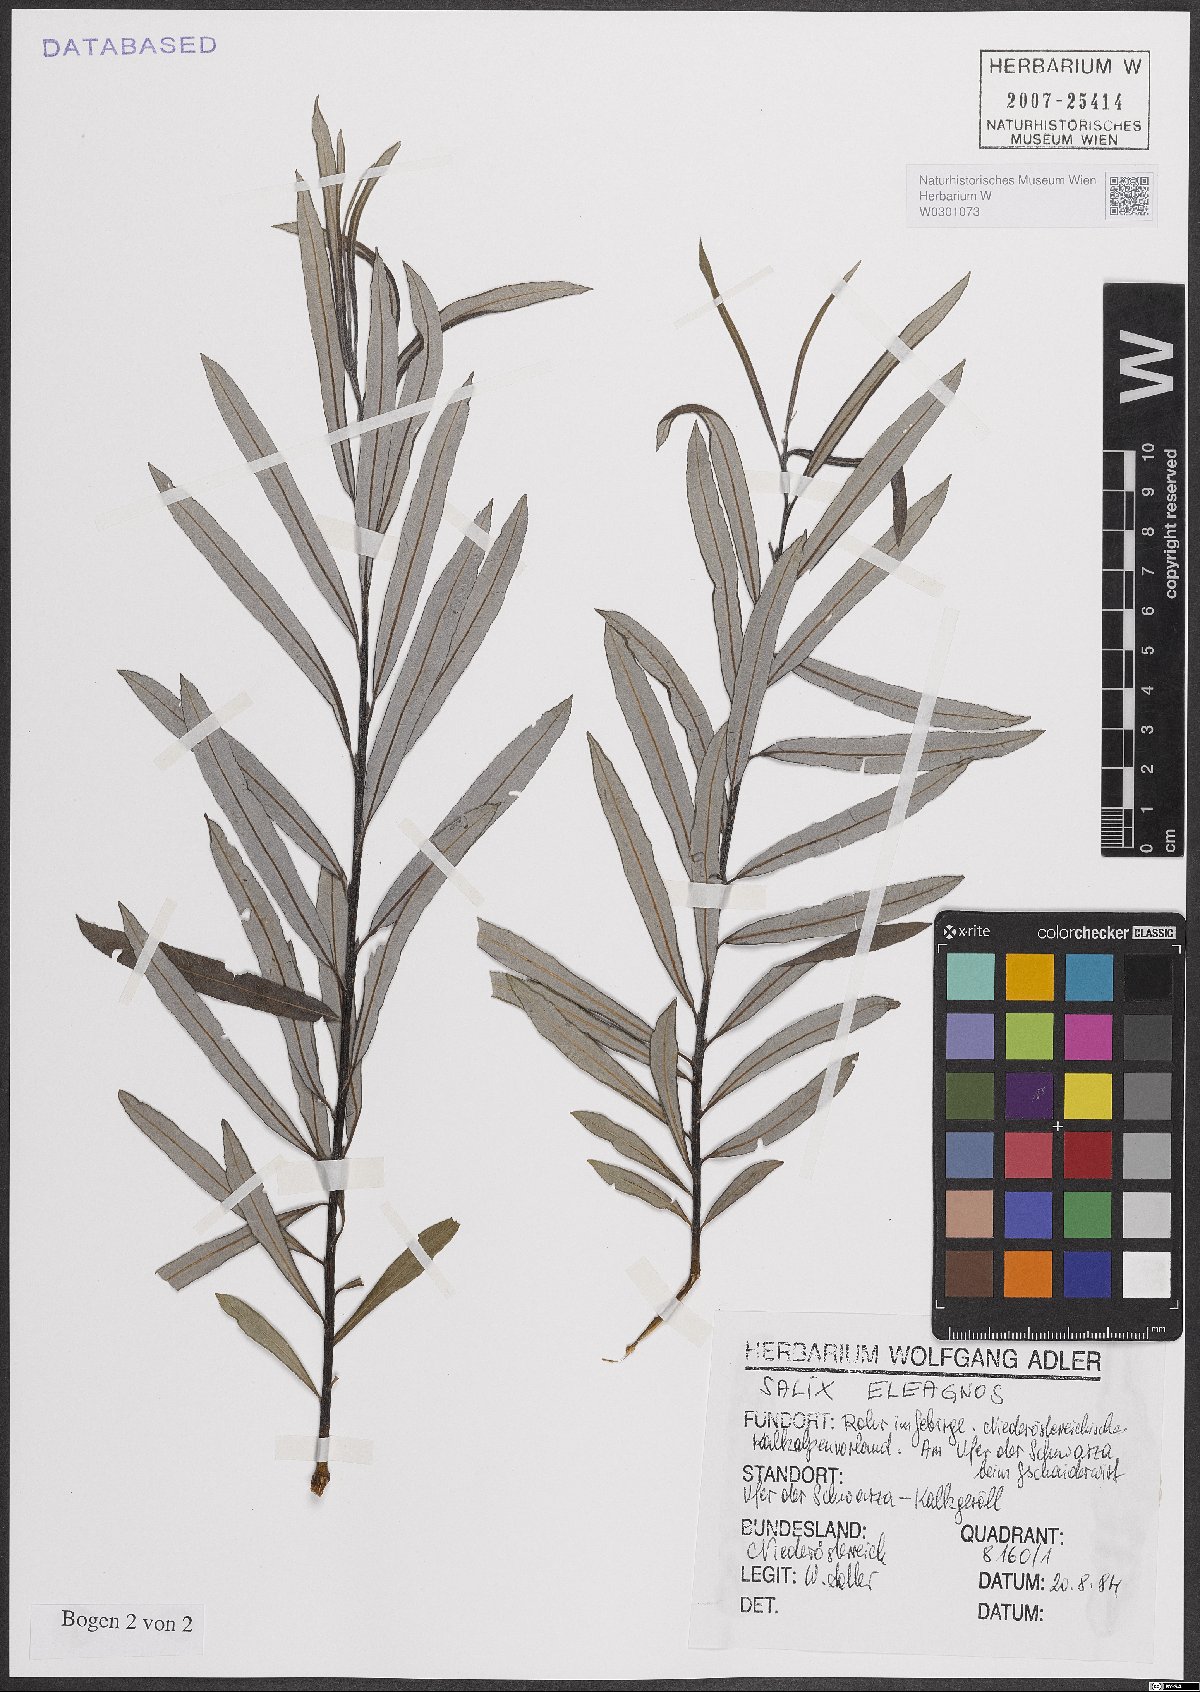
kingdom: Plantae
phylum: Tracheophyta
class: Magnoliopsida
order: Malpighiales
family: Salicaceae
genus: Salix
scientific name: Salix eleagnos
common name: Elaeagnus willow
